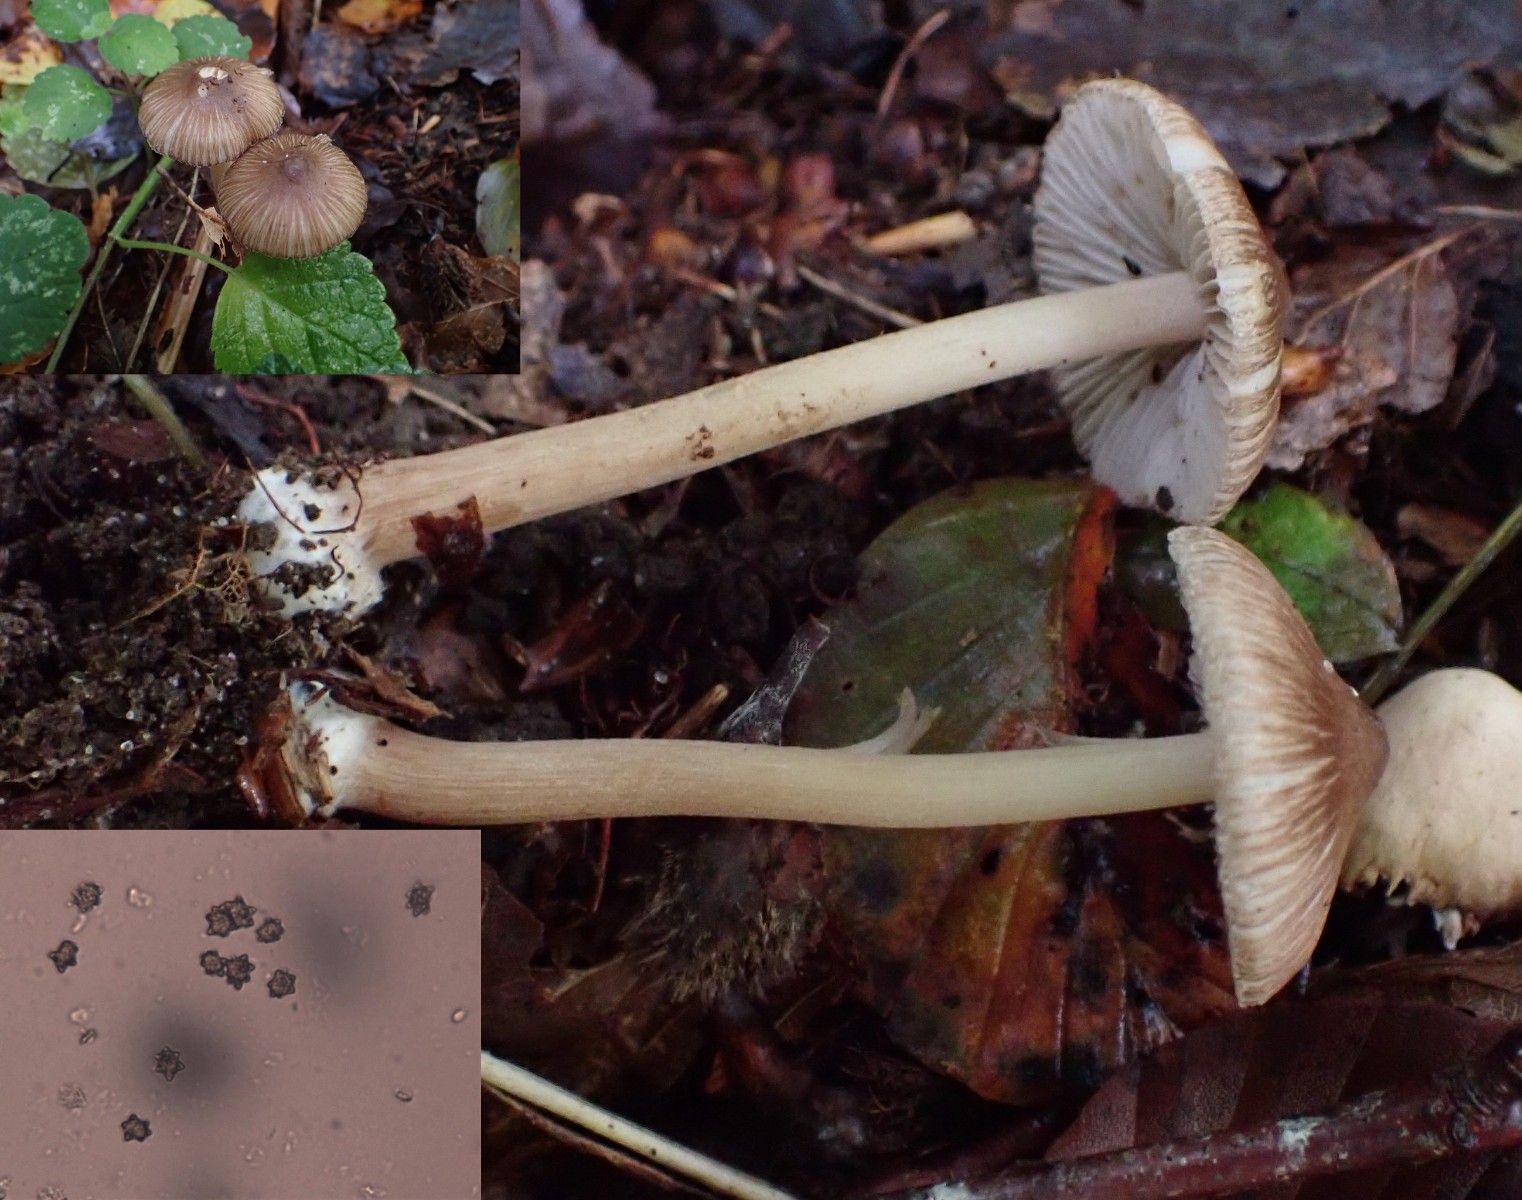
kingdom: Fungi
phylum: Basidiomycota
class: Agaricomycetes
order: Agaricales
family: Inocybaceae
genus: Inocybe
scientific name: Inocybe asterospora
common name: stjernesporet trævlhat
